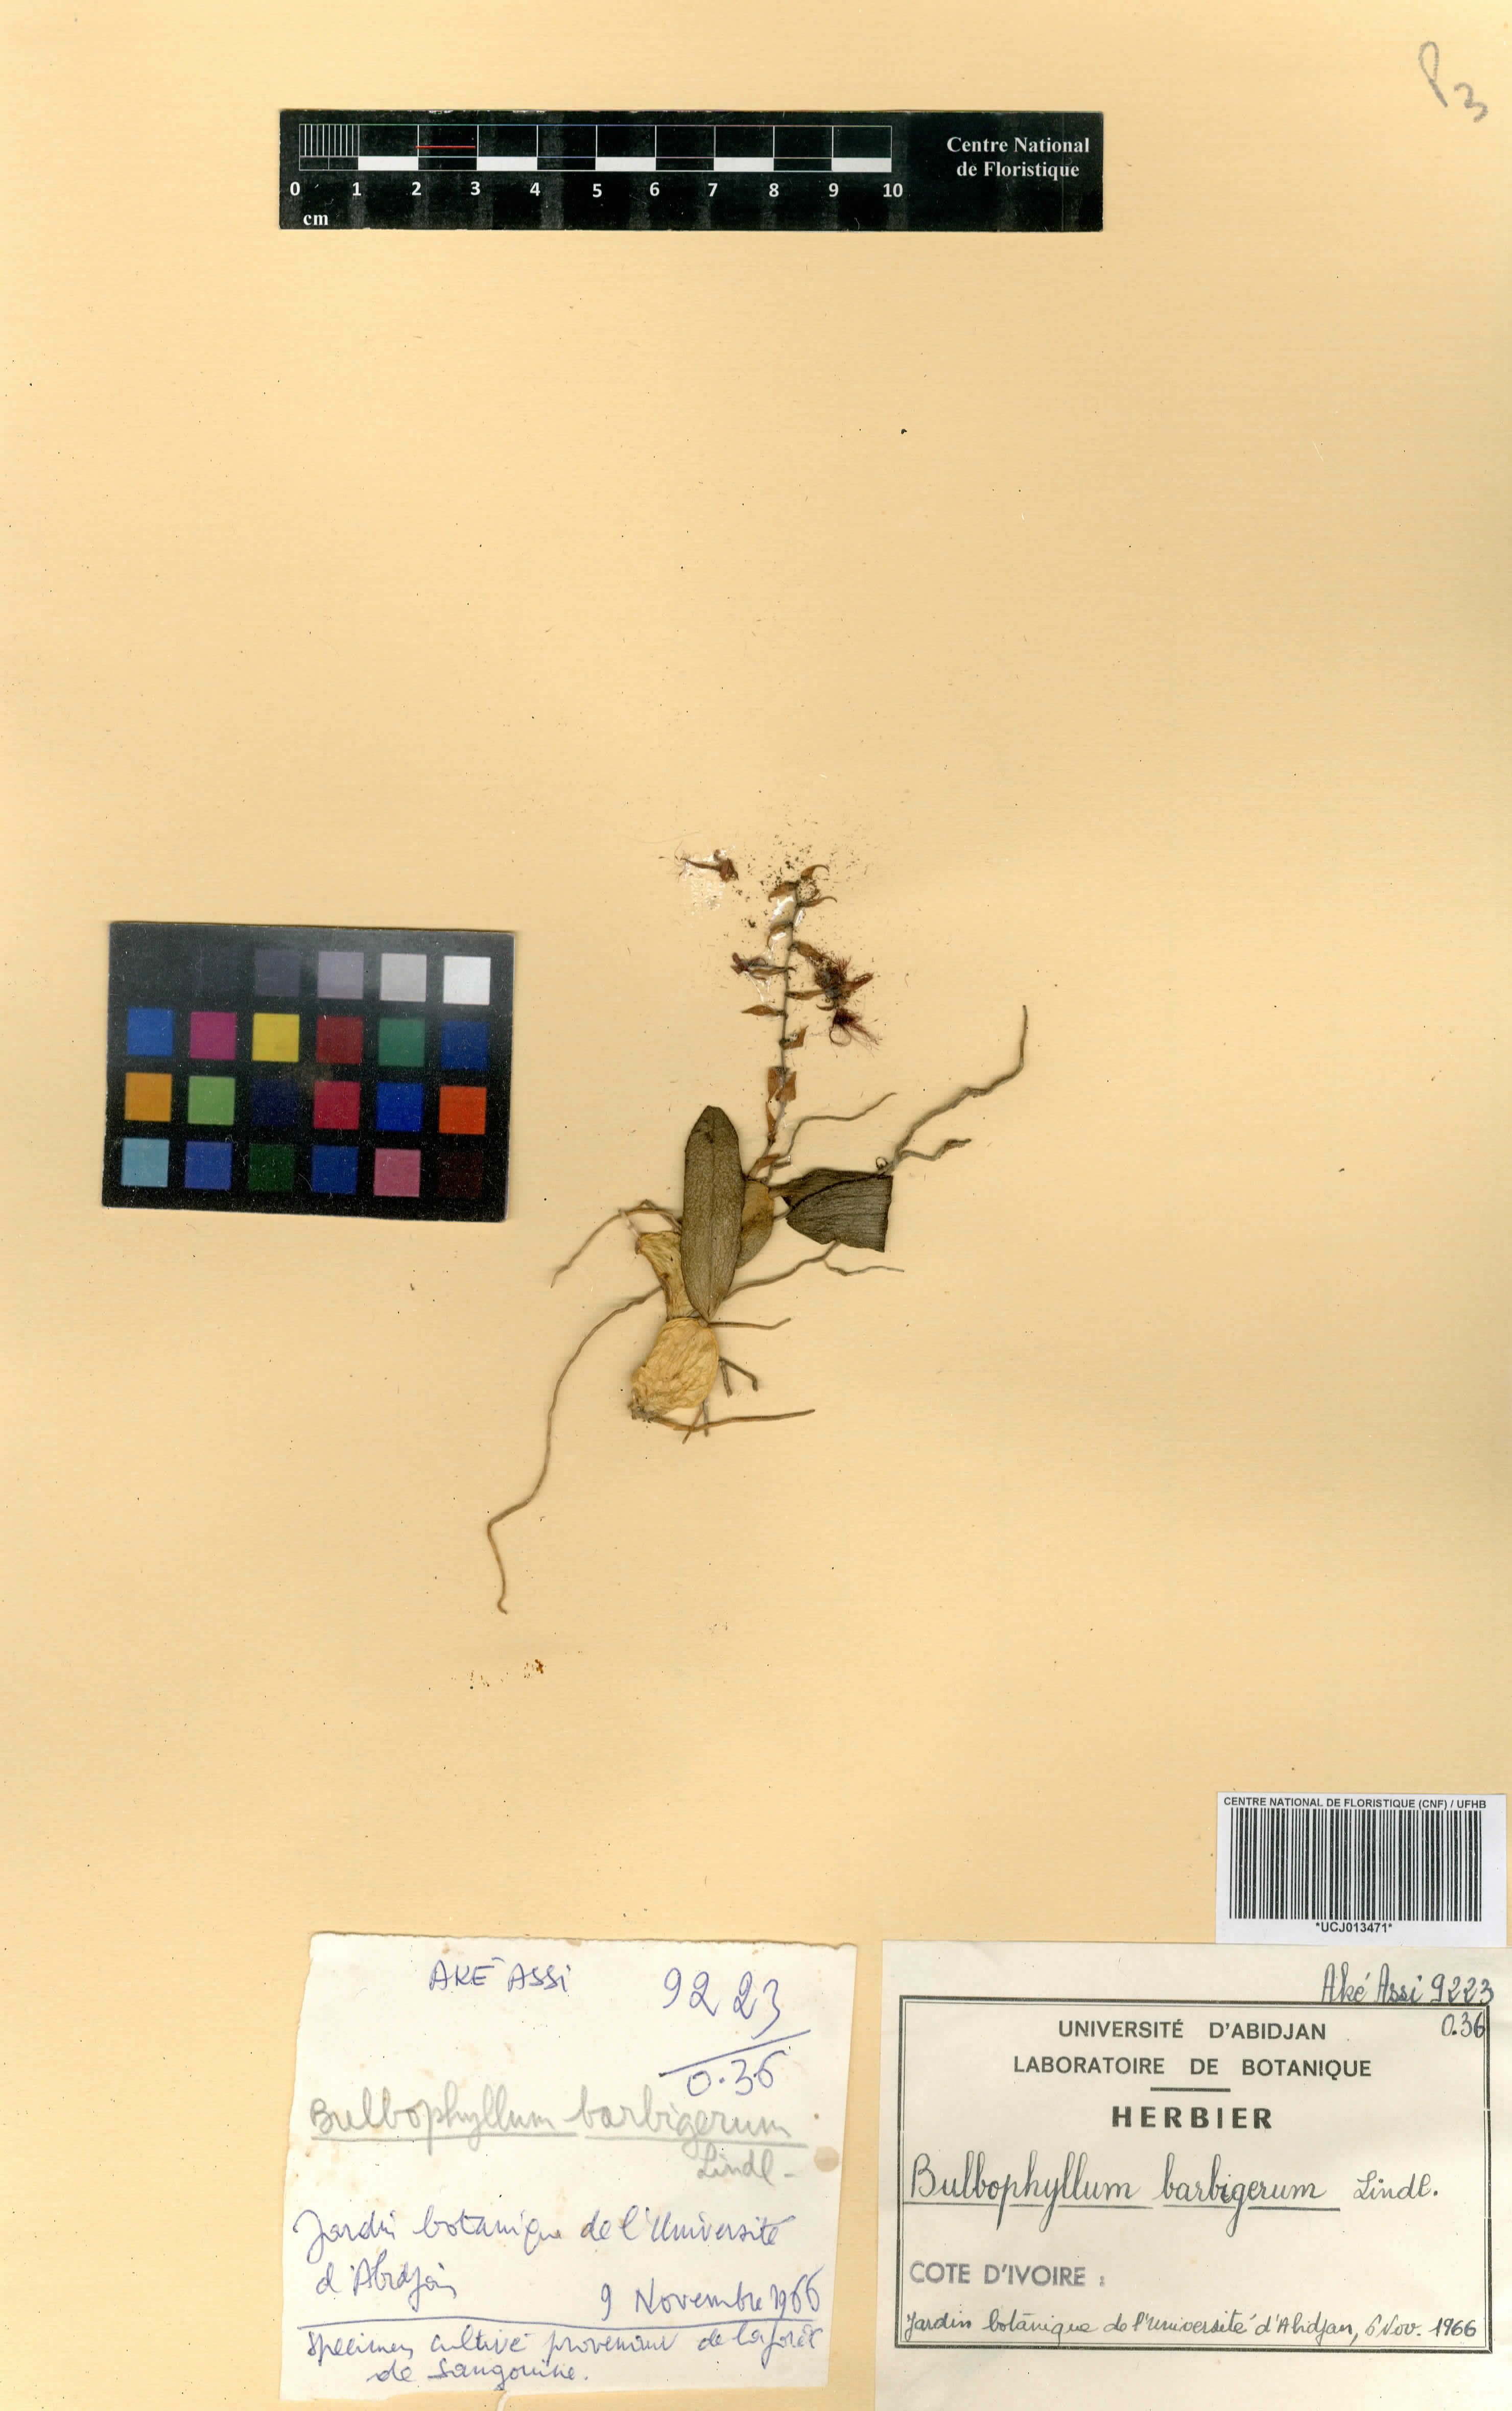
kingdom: Plantae
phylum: Tracheophyta
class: Liliopsida
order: Asparagales
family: Orchidaceae
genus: Bulbophyllum
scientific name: Bulbophyllum barbigerum
